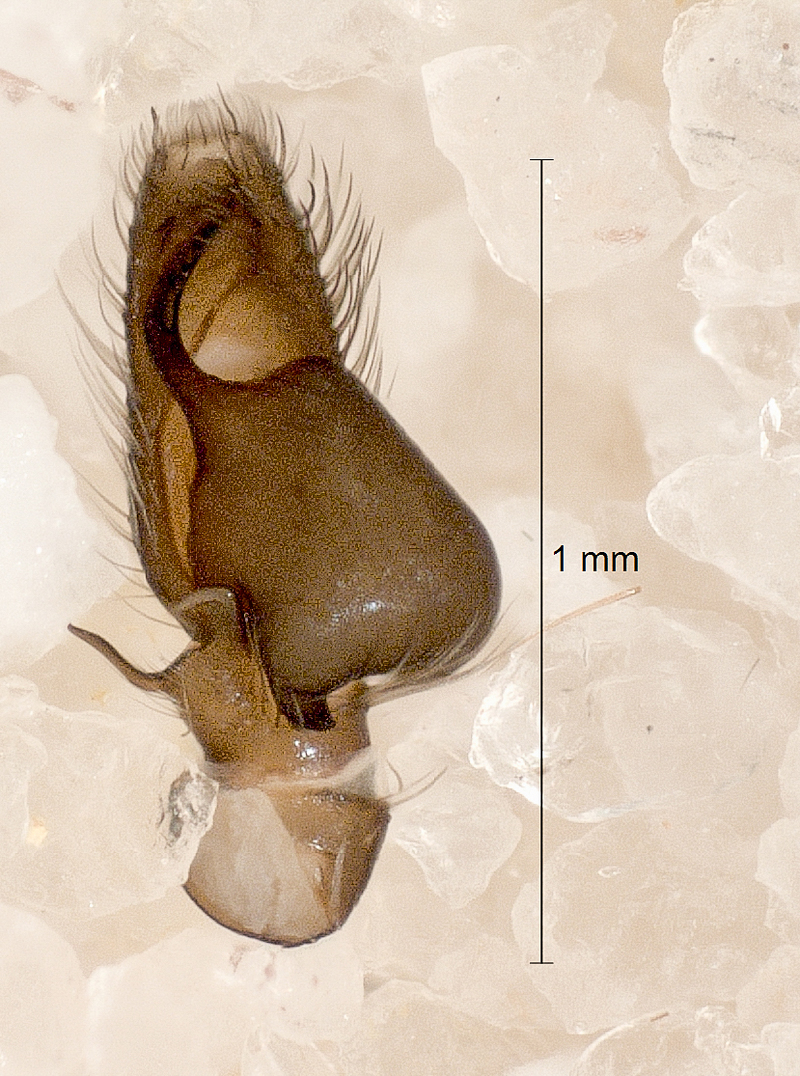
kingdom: Animalia
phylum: Arthropoda
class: Arachnida
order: Araneae
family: Salticidae
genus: Heliophanus
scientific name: Heliophanus cupreus
